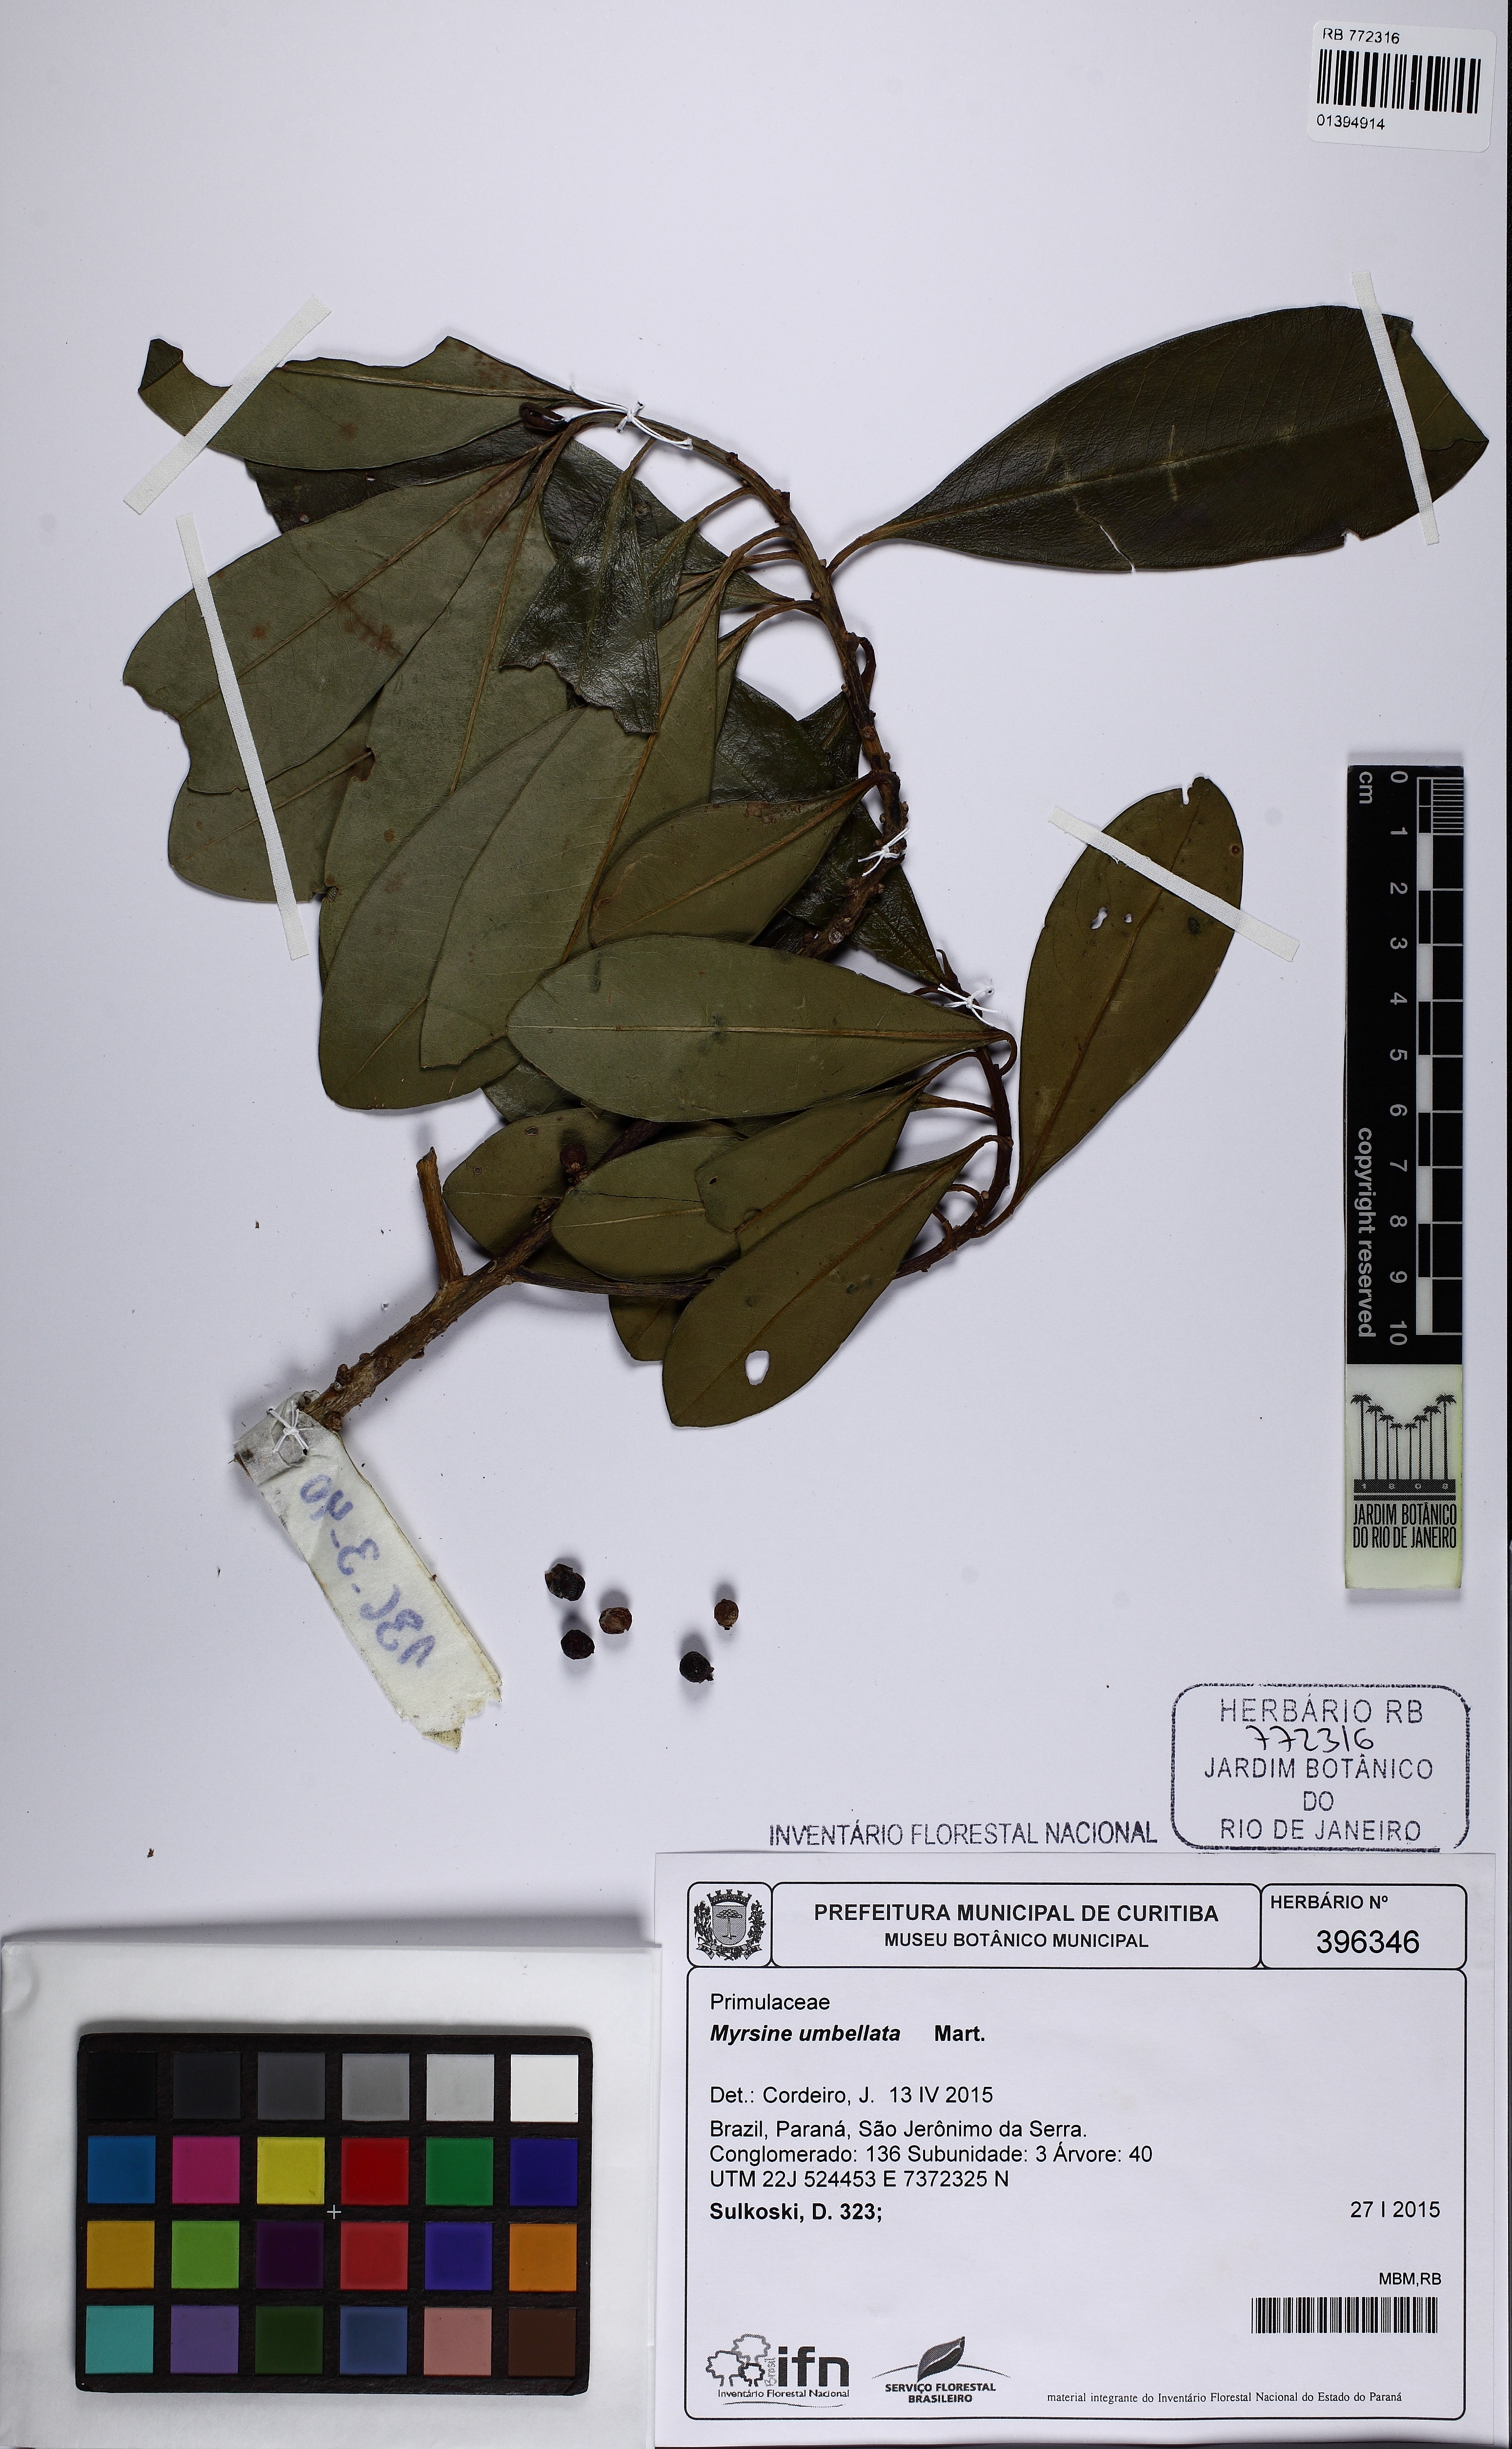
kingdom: Plantae
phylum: Tracheophyta
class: Magnoliopsida
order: Ericales
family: Primulaceae
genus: Myrsine
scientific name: Myrsine umbellata
